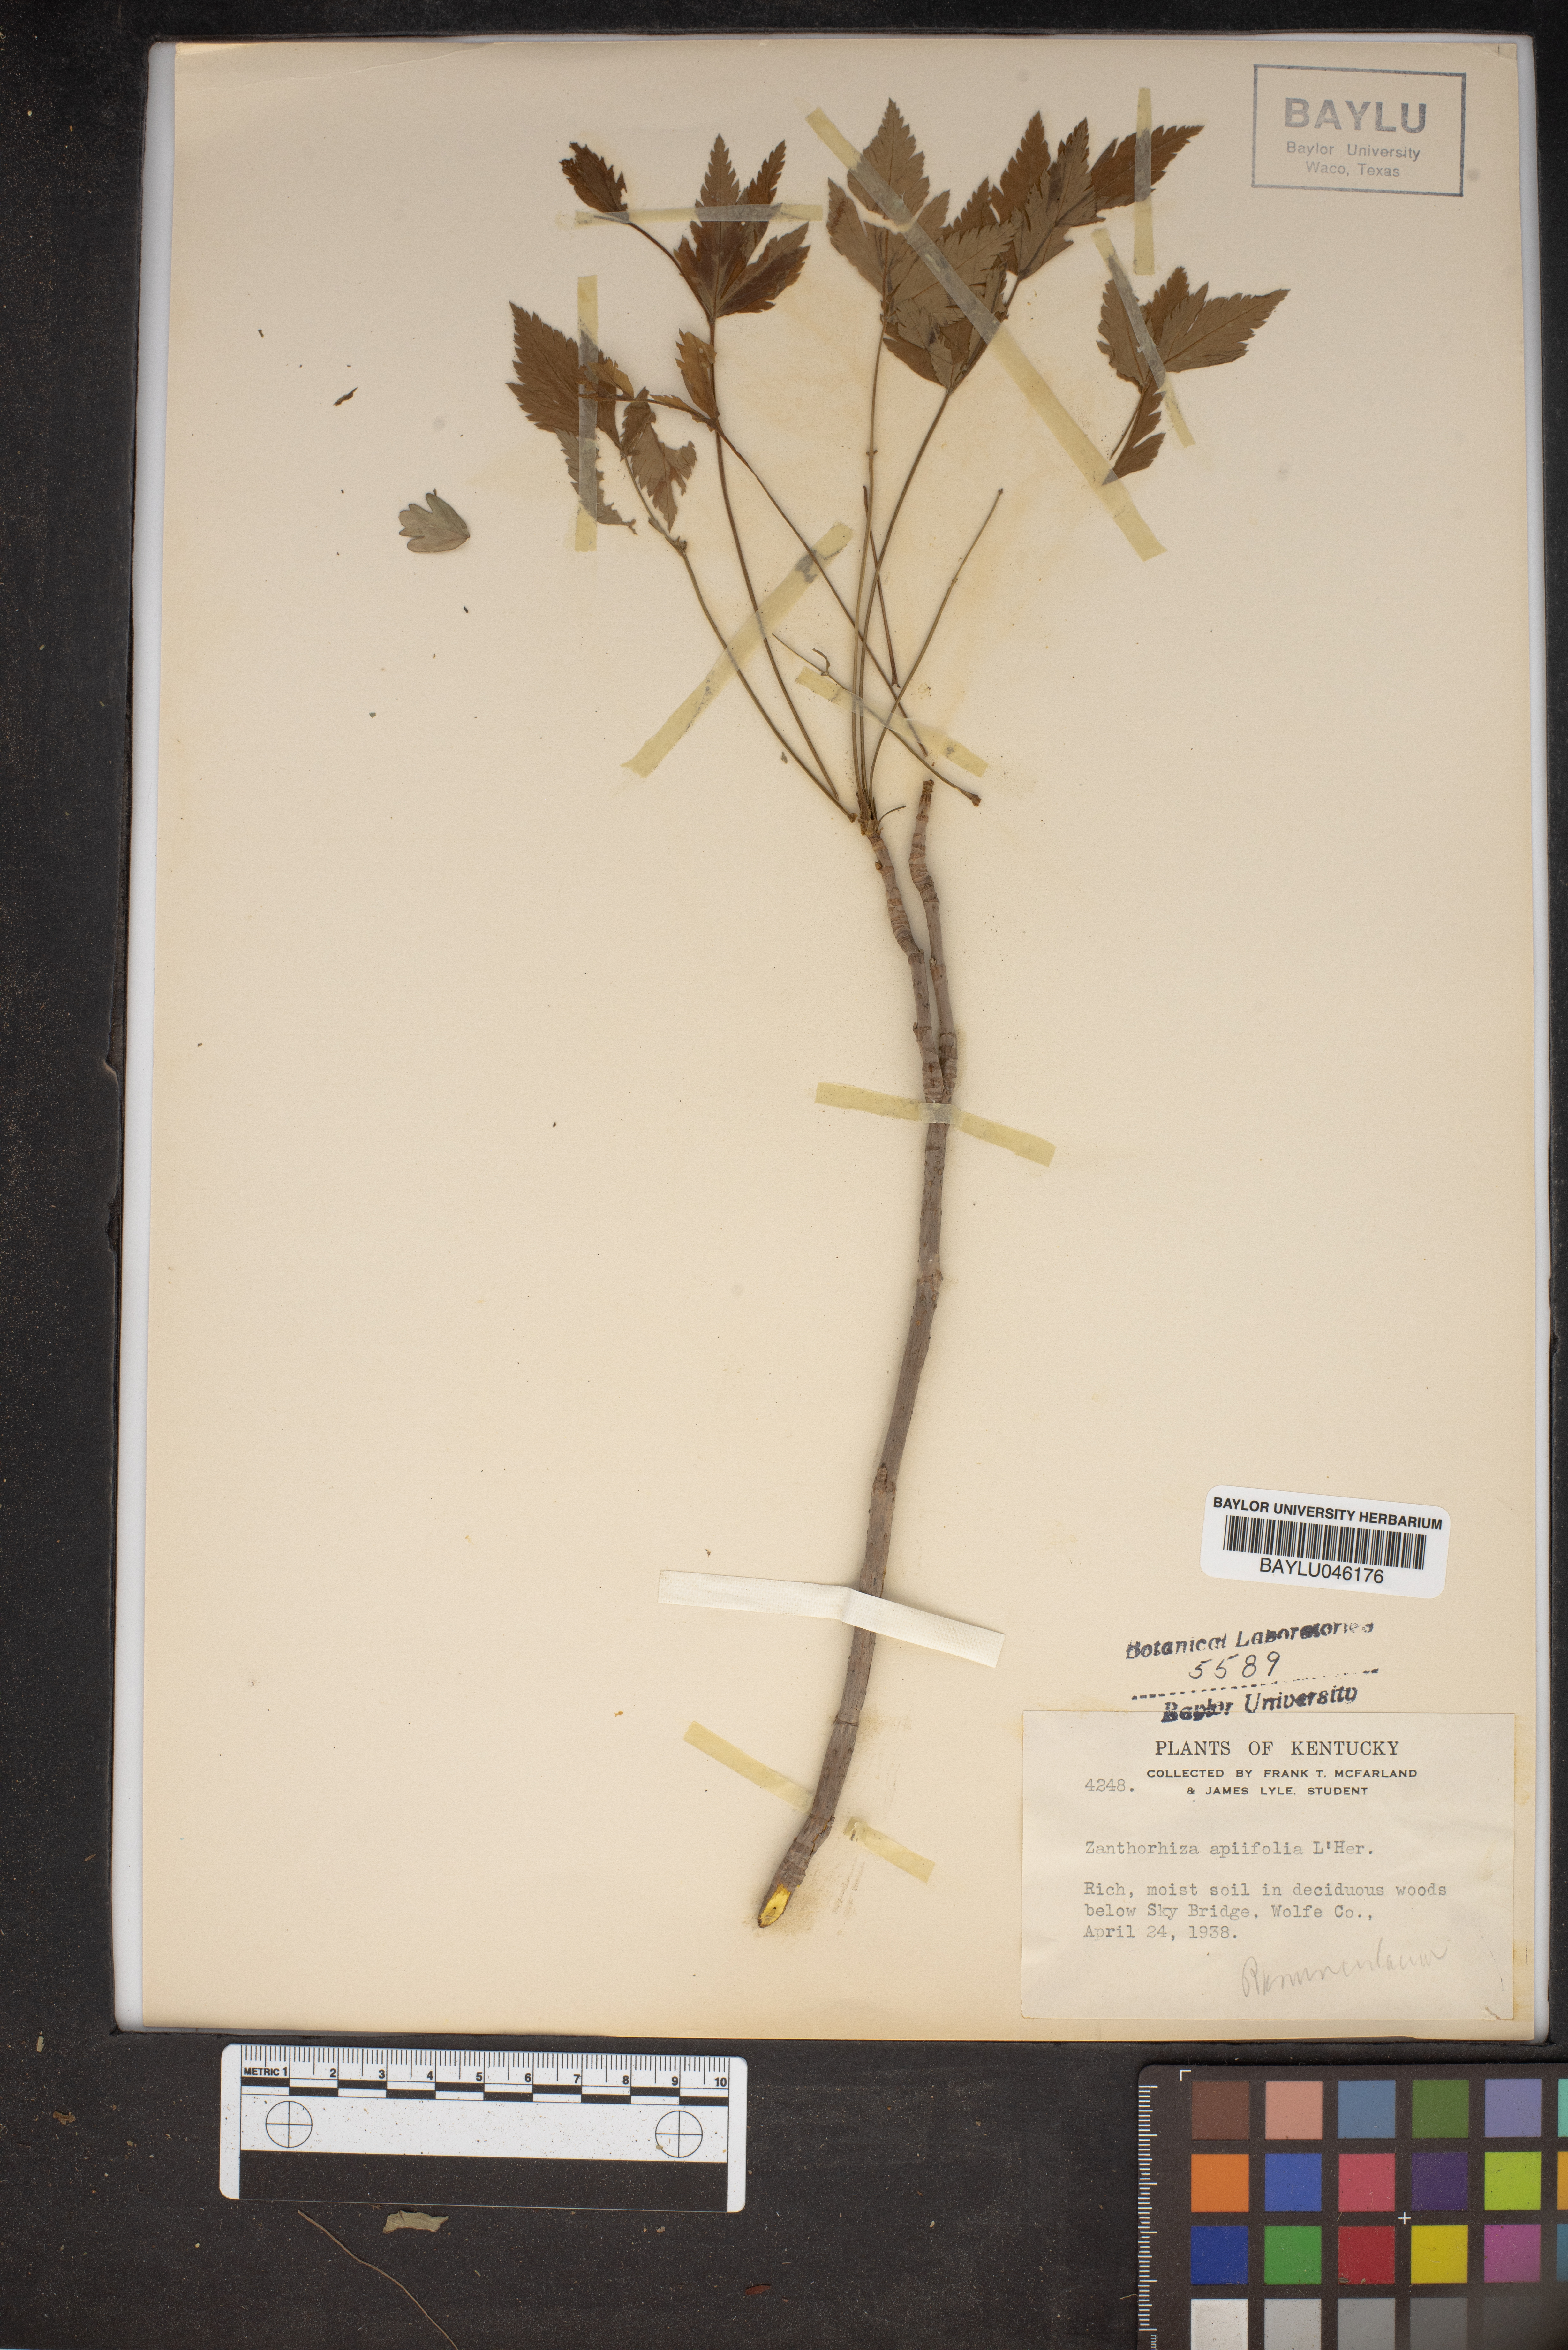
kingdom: Plantae
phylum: Tracheophyta
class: Magnoliopsida
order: Ranunculales
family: Ranunculaceae
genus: Xanthorhiza
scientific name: Xanthorhiza simplicissima
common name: Yellowroot
